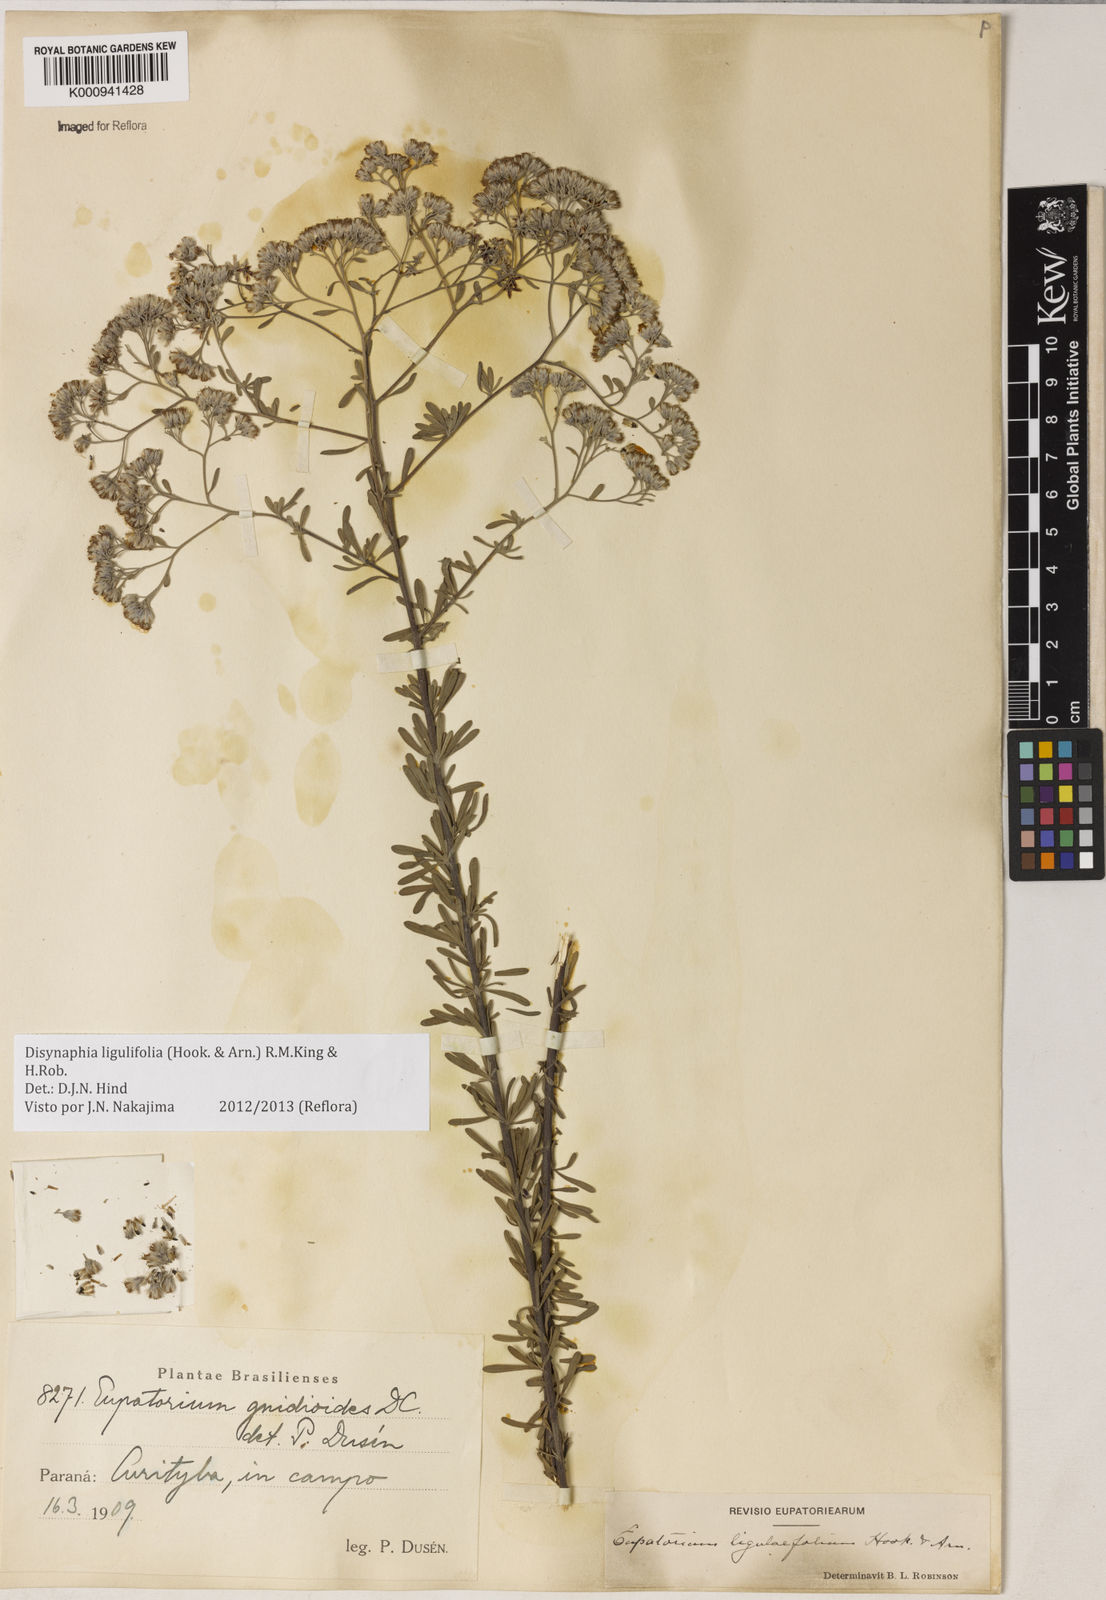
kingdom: Plantae
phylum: Tracheophyta
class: Magnoliopsida
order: Asterales
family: Asteraceae
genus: Disynaphia
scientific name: Disynaphia ligulifolia
